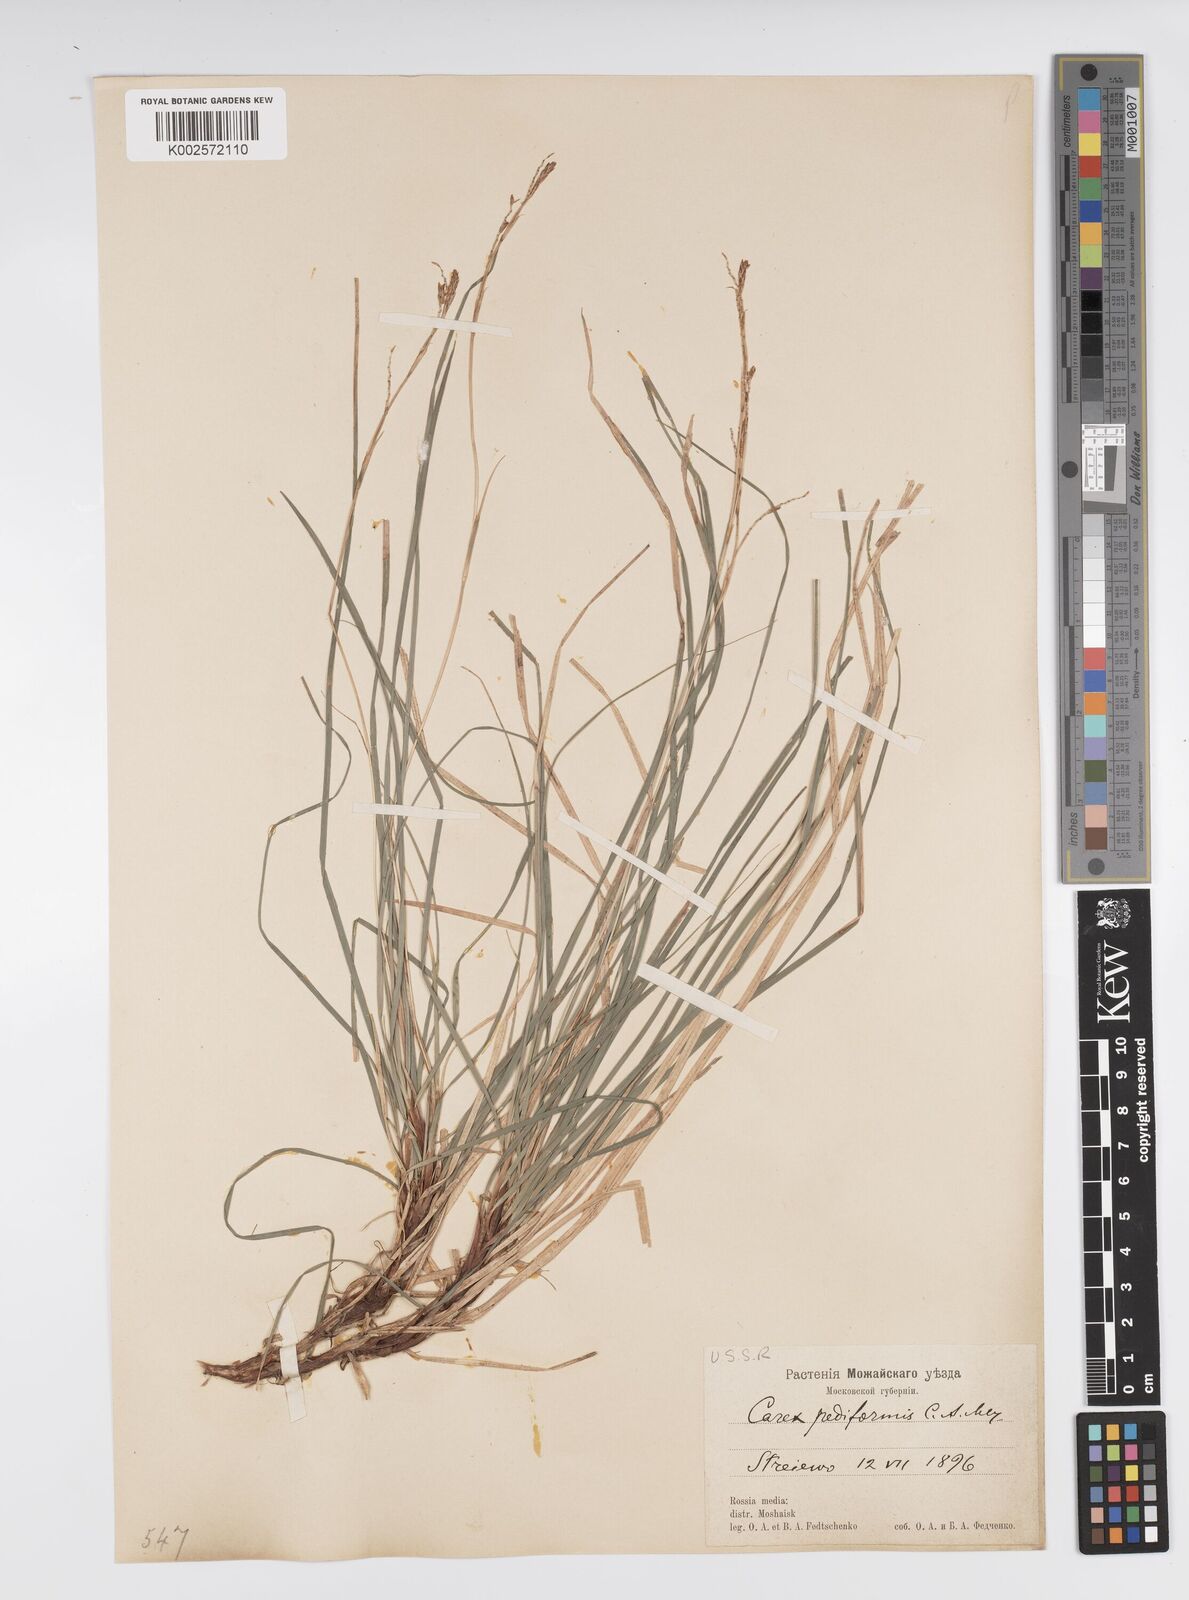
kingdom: Plantae
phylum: Tracheophyta
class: Liliopsida
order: Poales
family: Cyperaceae
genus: Carex
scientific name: Carex pediformis
